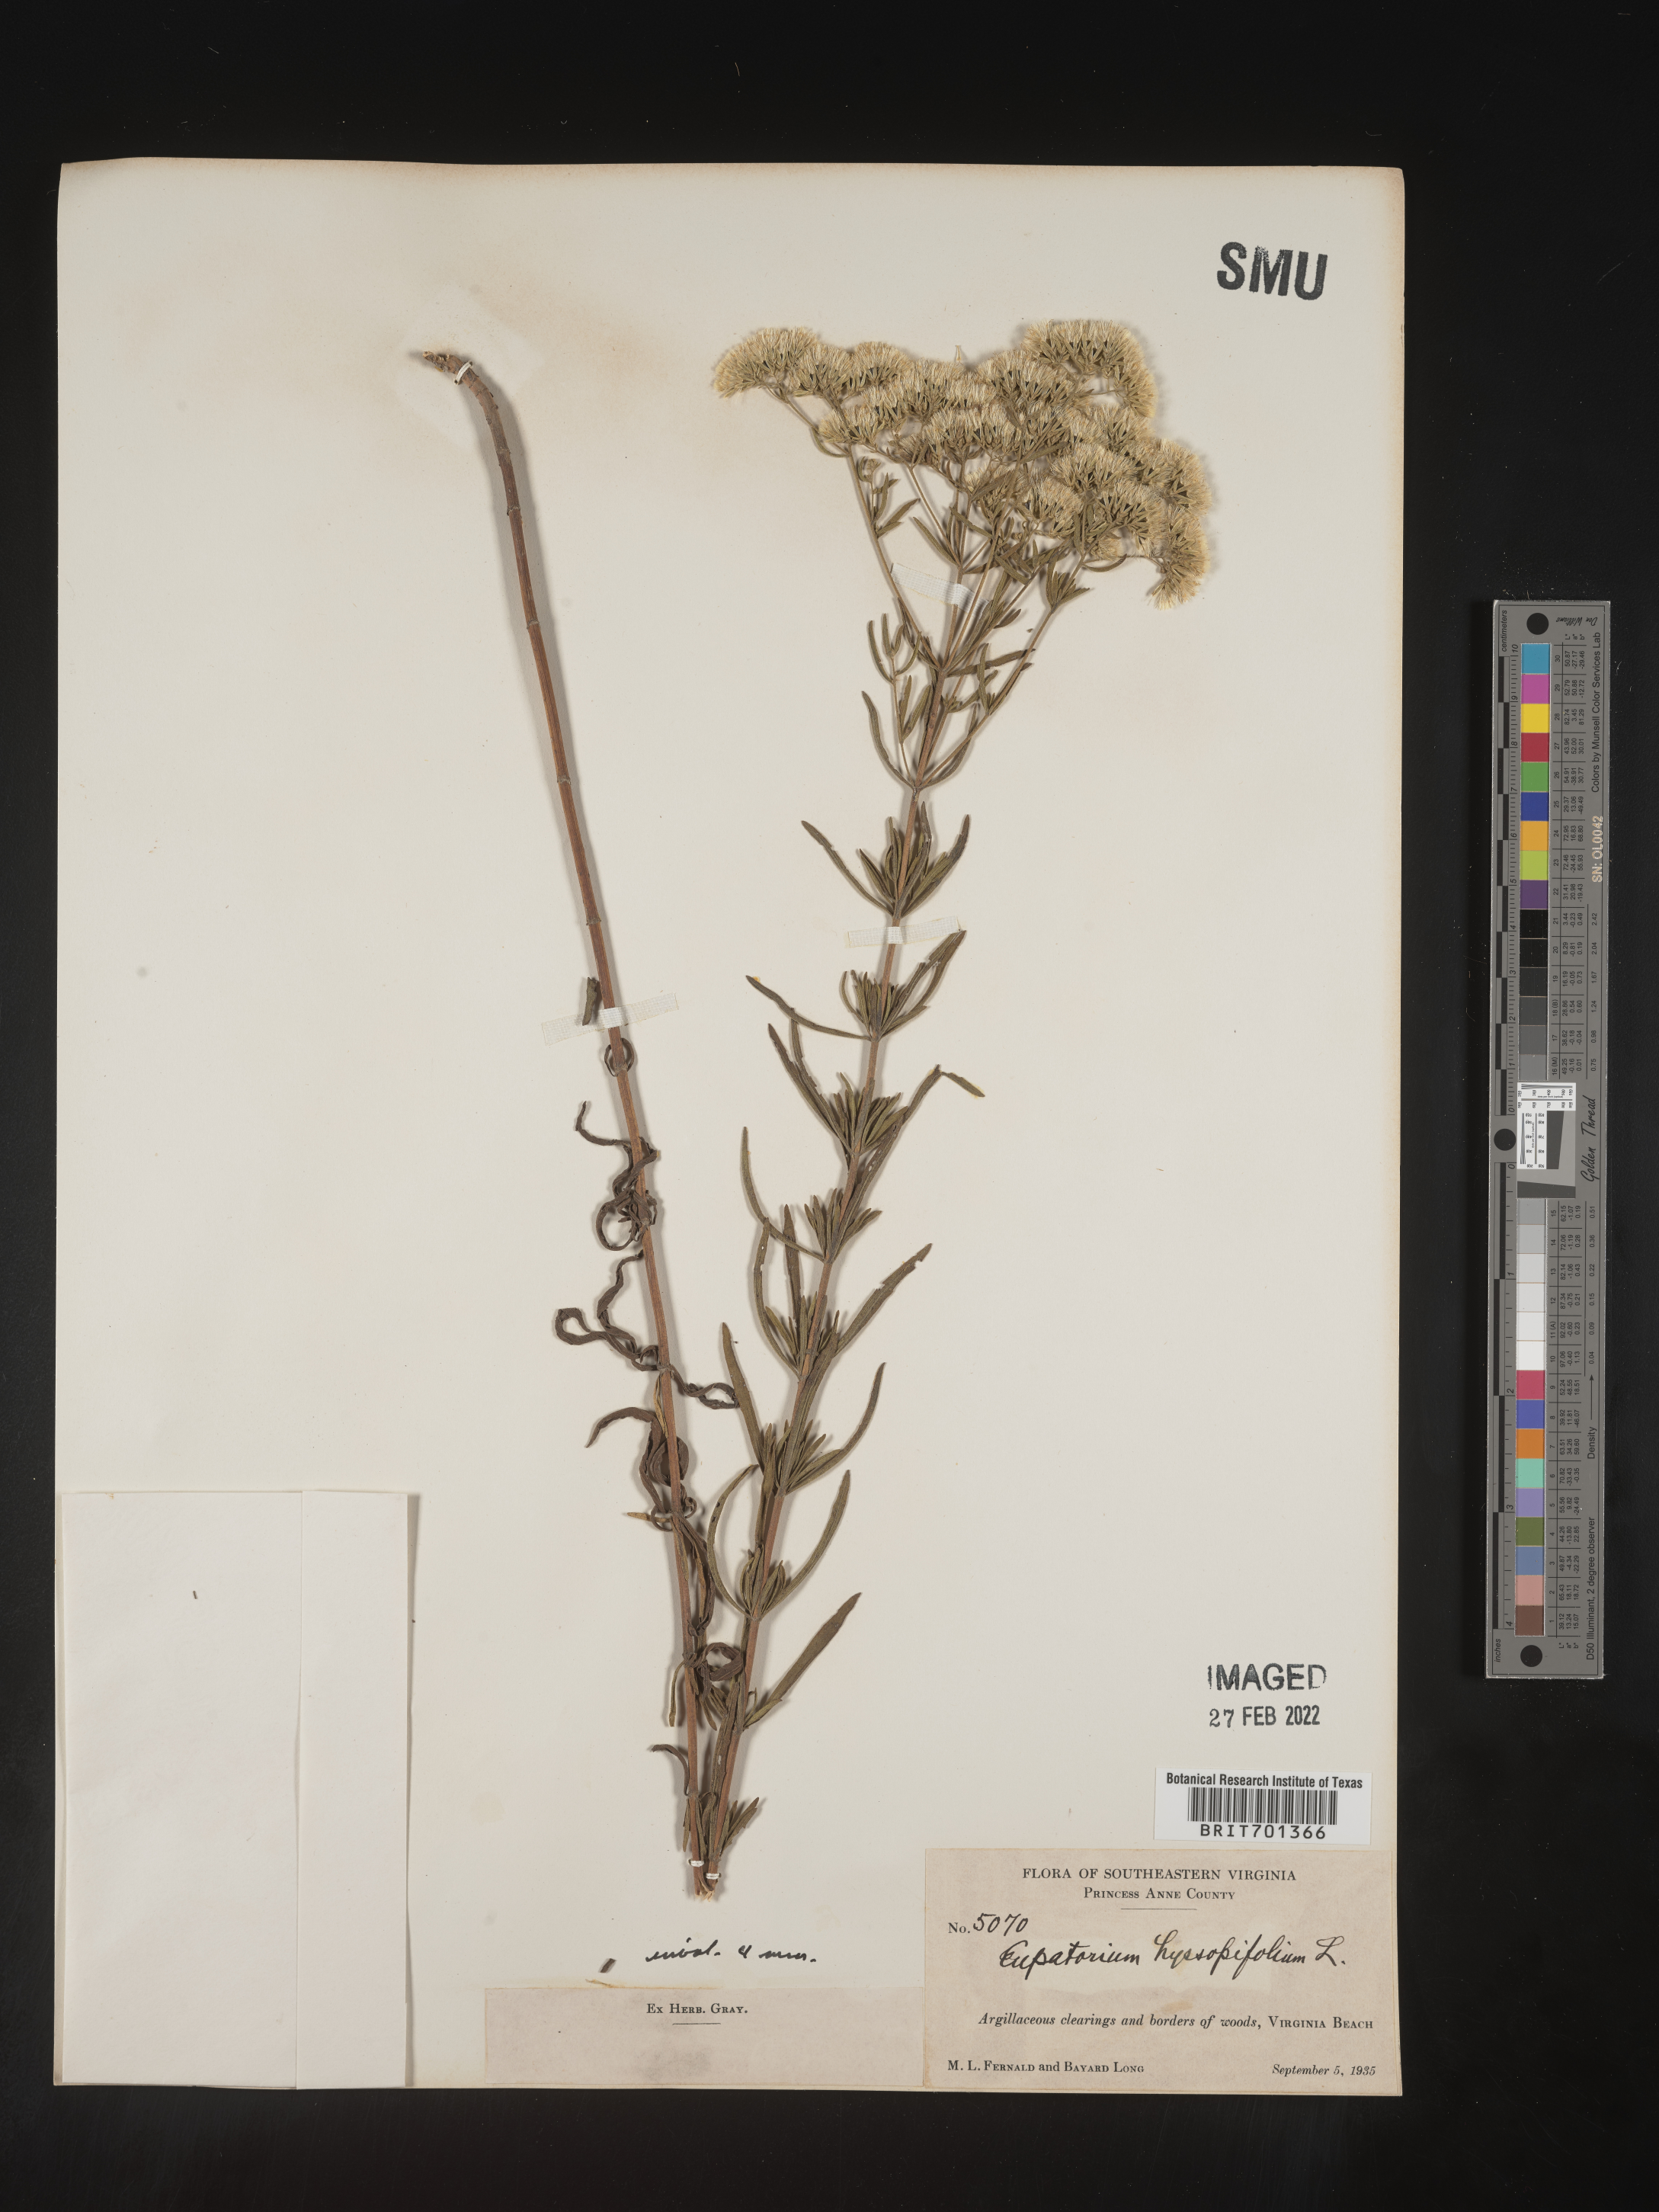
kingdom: Plantae
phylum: Tracheophyta
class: Magnoliopsida
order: Asterales
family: Asteraceae
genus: Eupatorium
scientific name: Eupatorium hyssopifolium
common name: Hyssop-leaf thoroughwort
